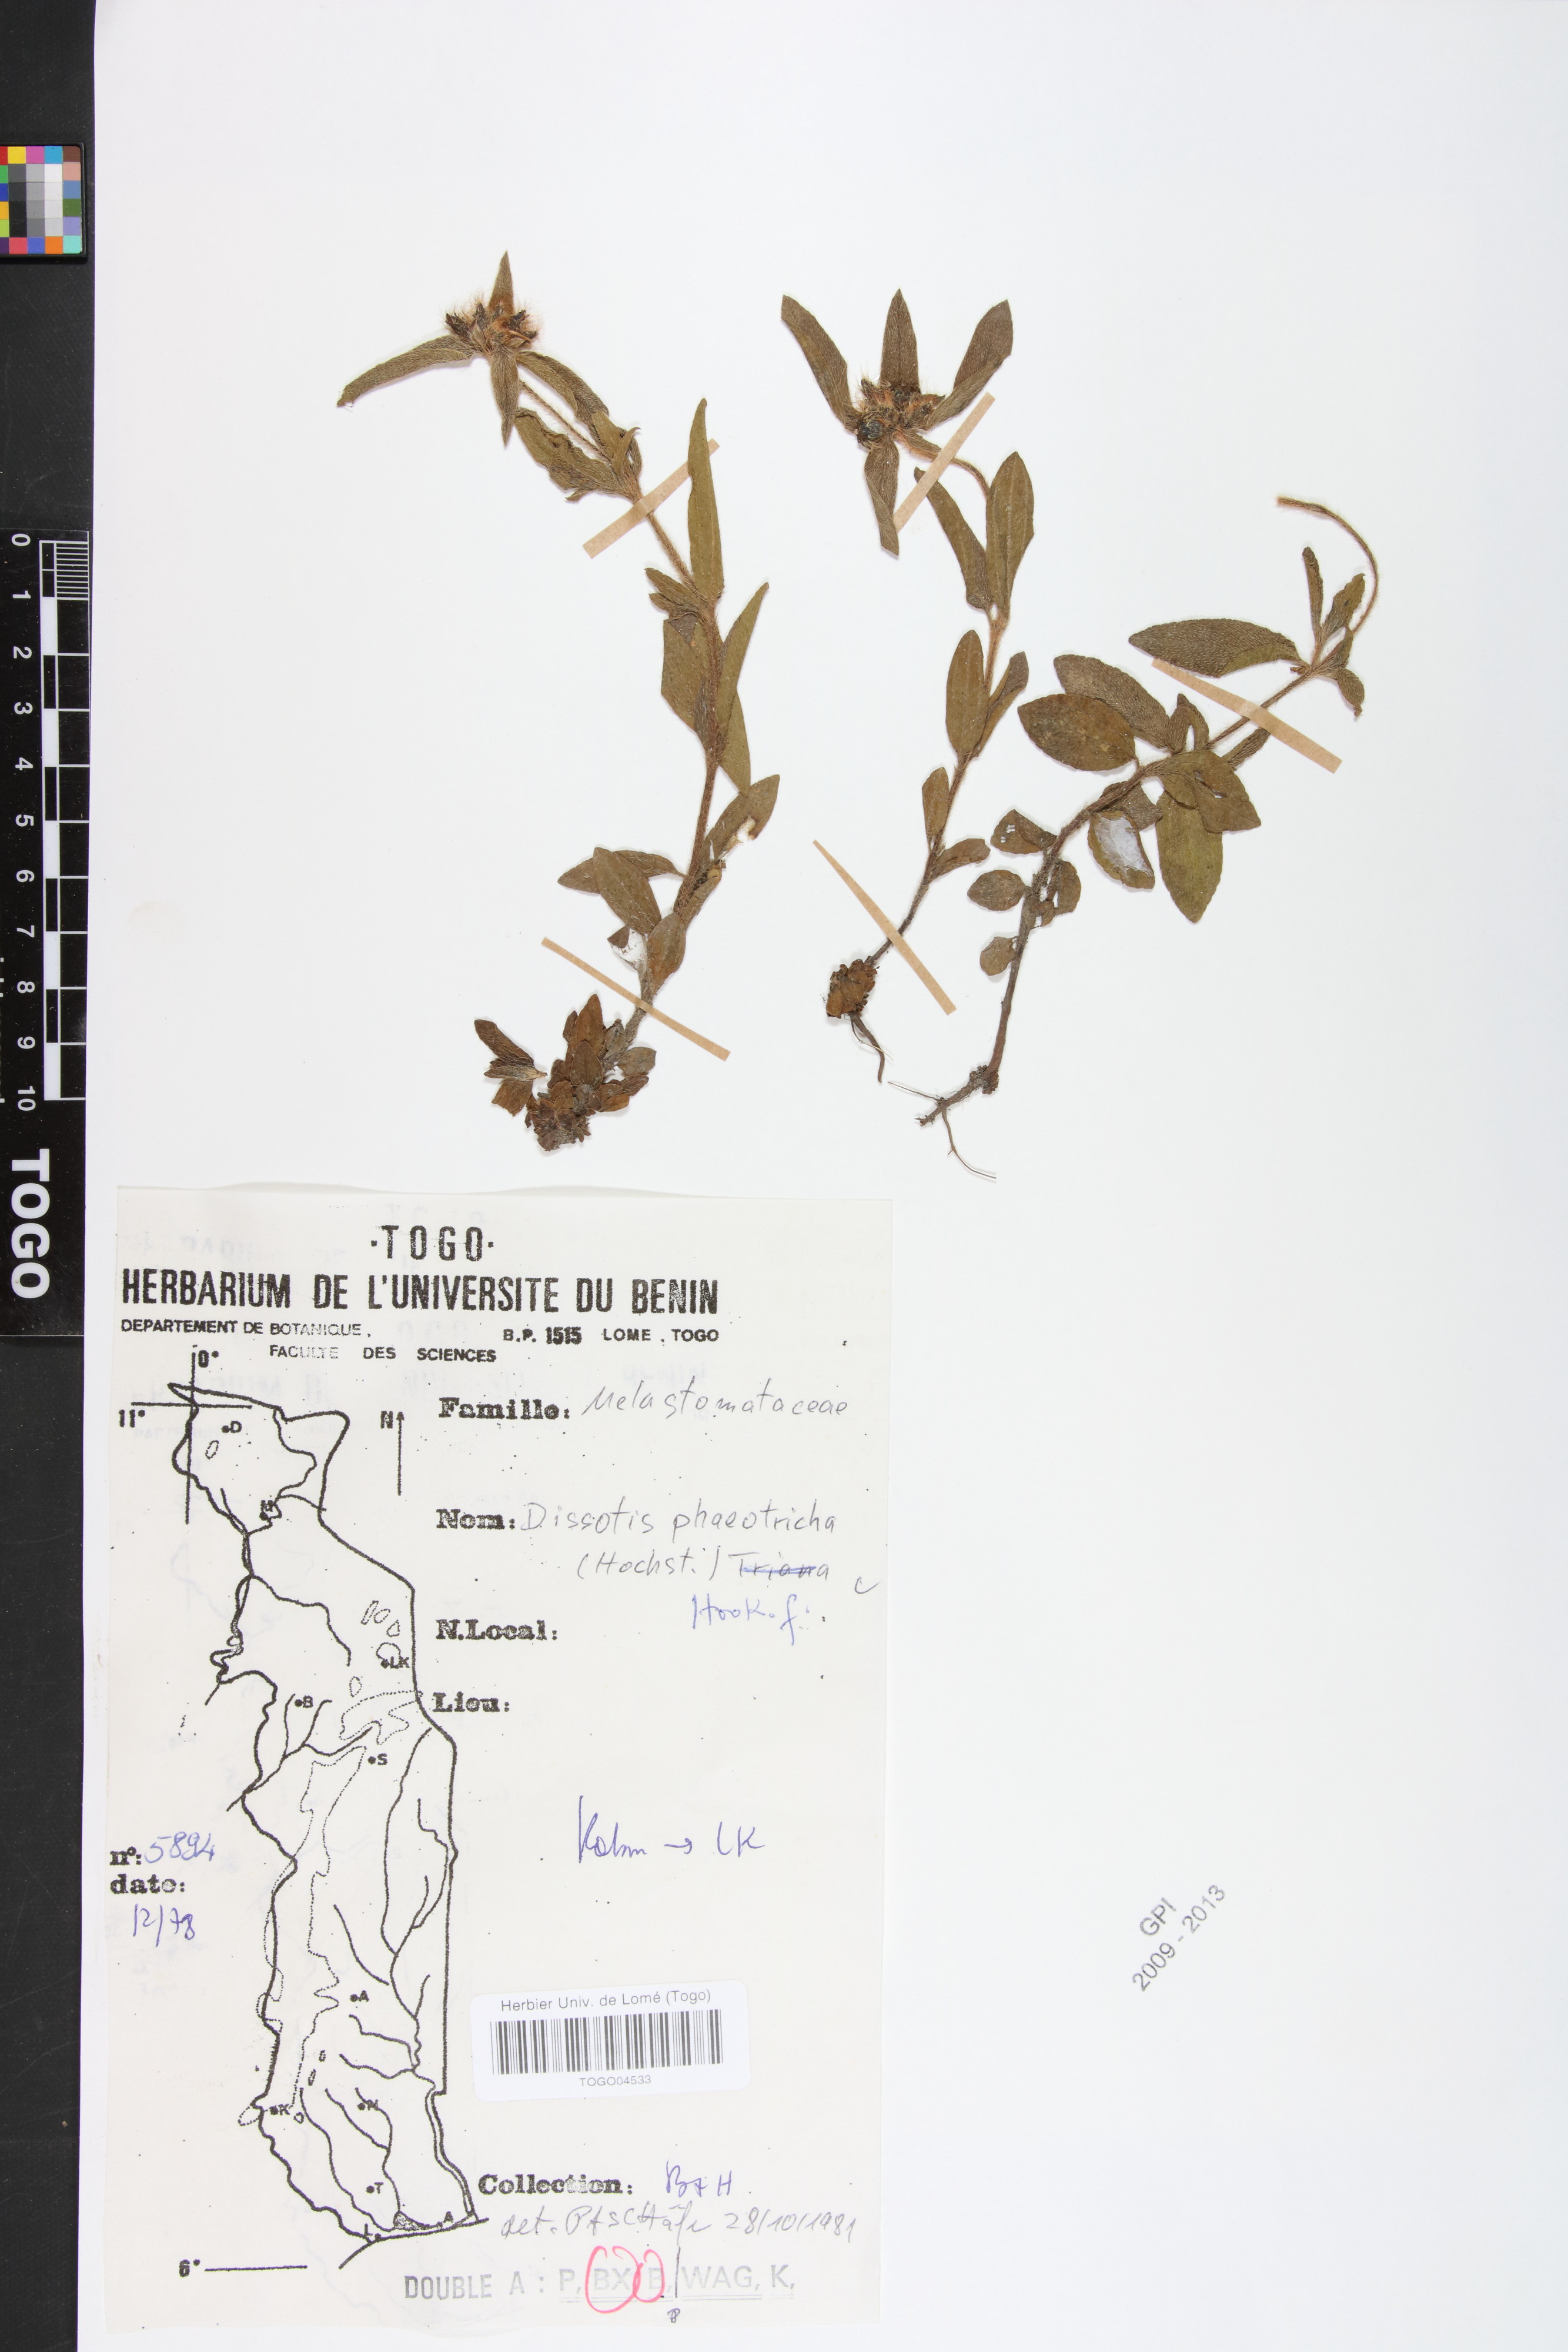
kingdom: Plantae
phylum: Tracheophyta
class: Magnoliopsida
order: Myrtales
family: Melastomataceae
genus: Antherotoma
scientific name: Antherotoma phaeotricha
